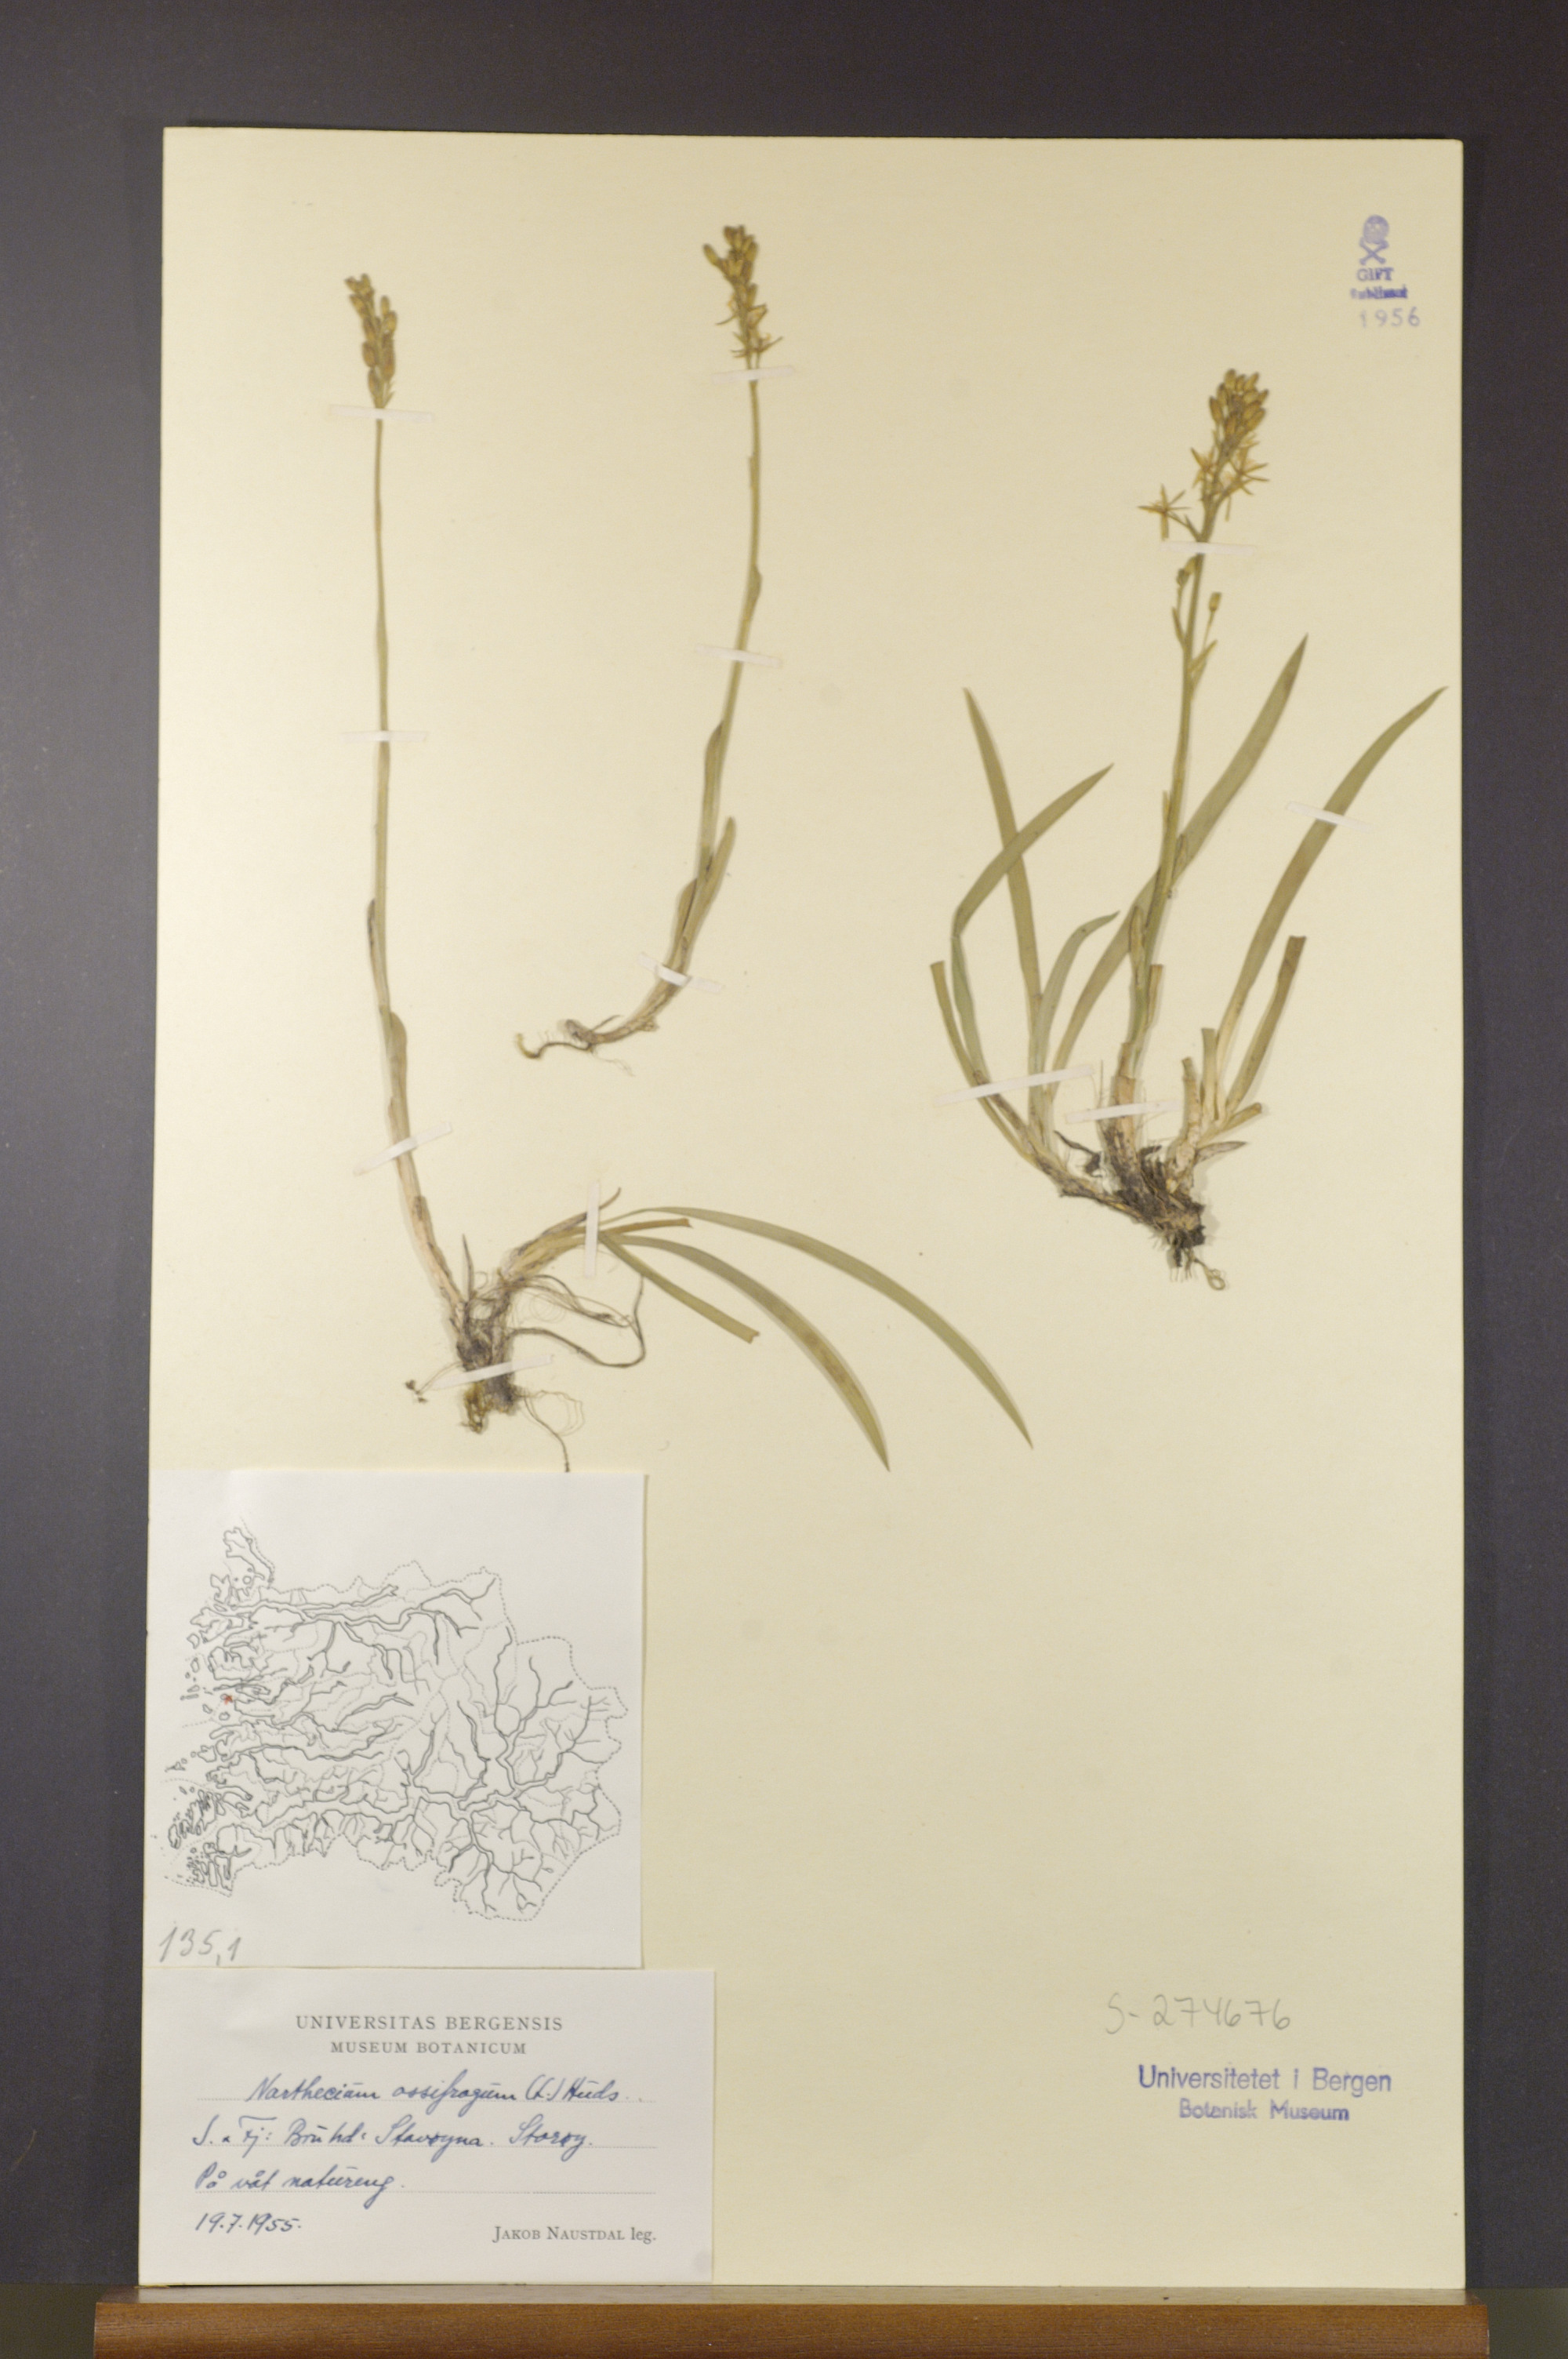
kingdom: Plantae
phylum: Tracheophyta
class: Liliopsida
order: Dioscoreales
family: Nartheciaceae
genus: Narthecium
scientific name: Narthecium ossifragum
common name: Bog asphodel
